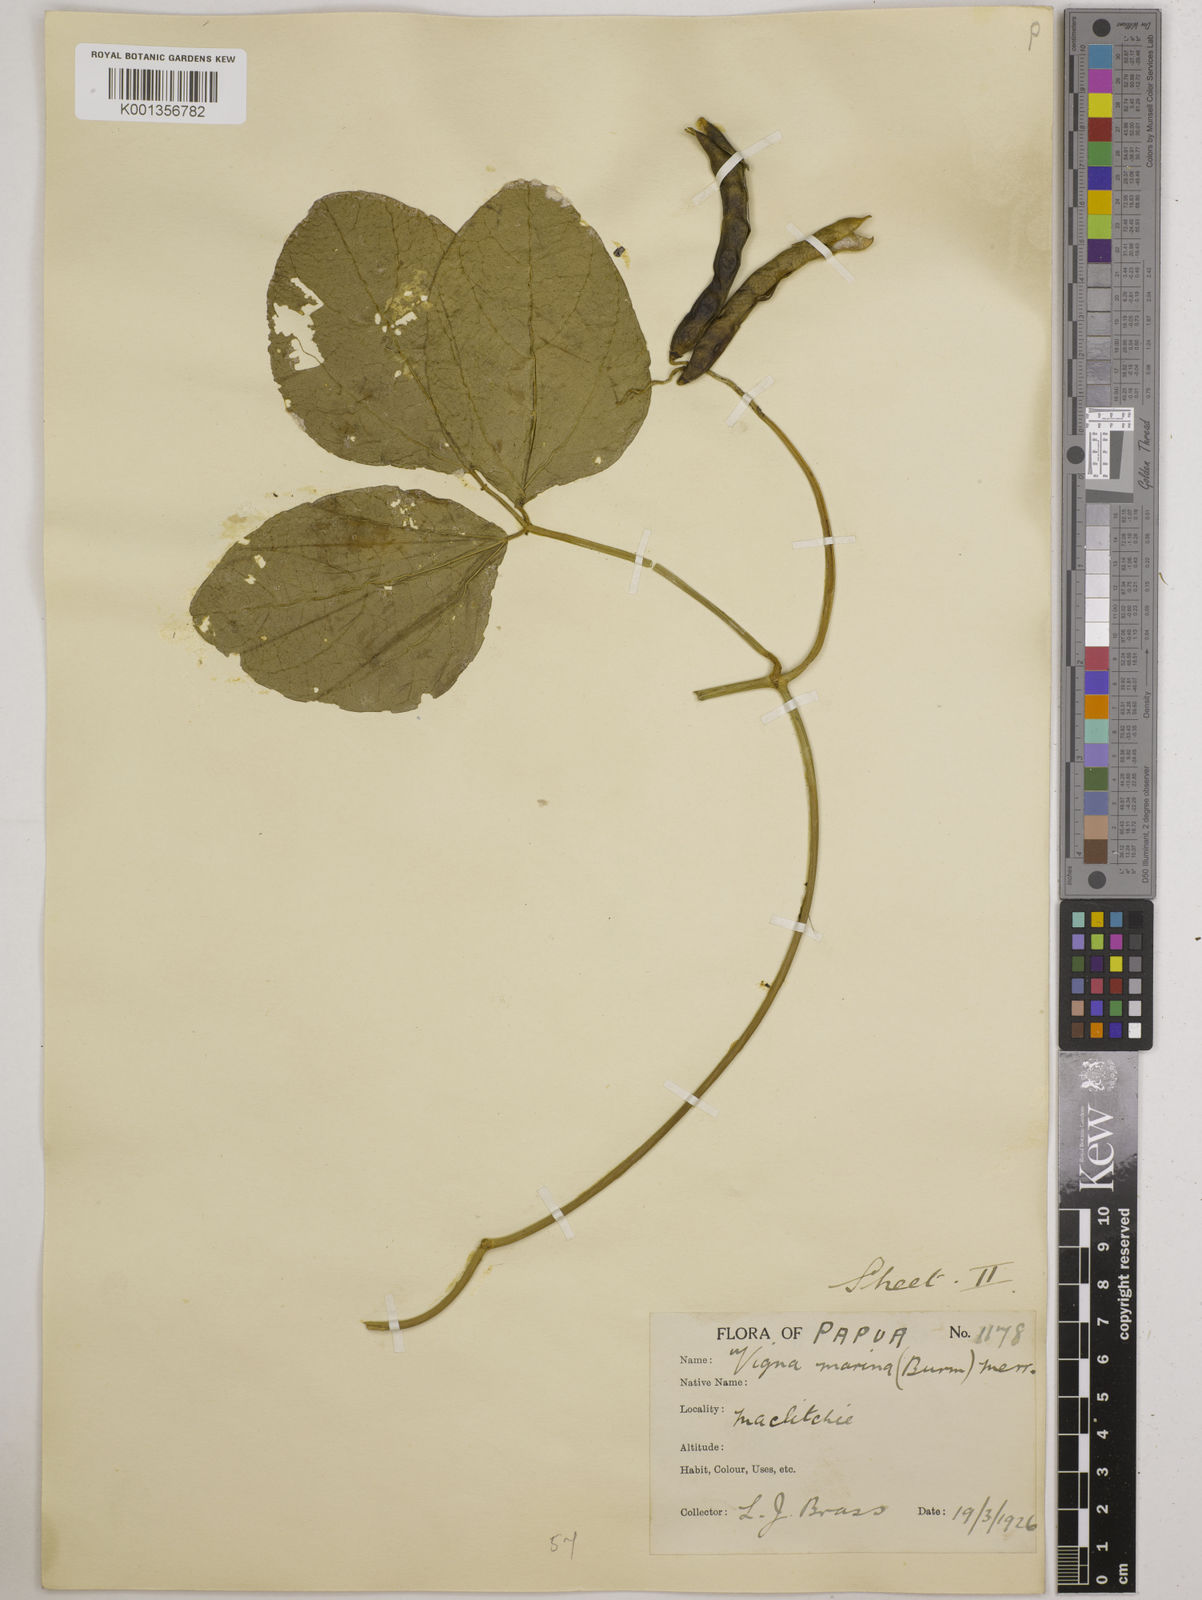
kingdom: Plantae
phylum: Tracheophyta
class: Magnoliopsida
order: Fabales
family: Fabaceae
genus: Vigna
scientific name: Vigna marina
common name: Dune-bean
